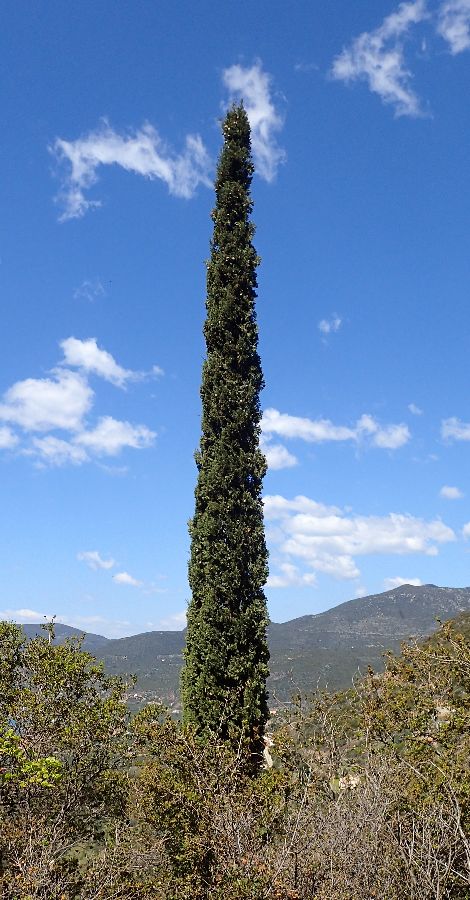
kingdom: Plantae
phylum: Tracheophyta
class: Pinopsida
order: Pinales
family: Cupressaceae
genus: Cupressus
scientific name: Cupressus sempervirens
